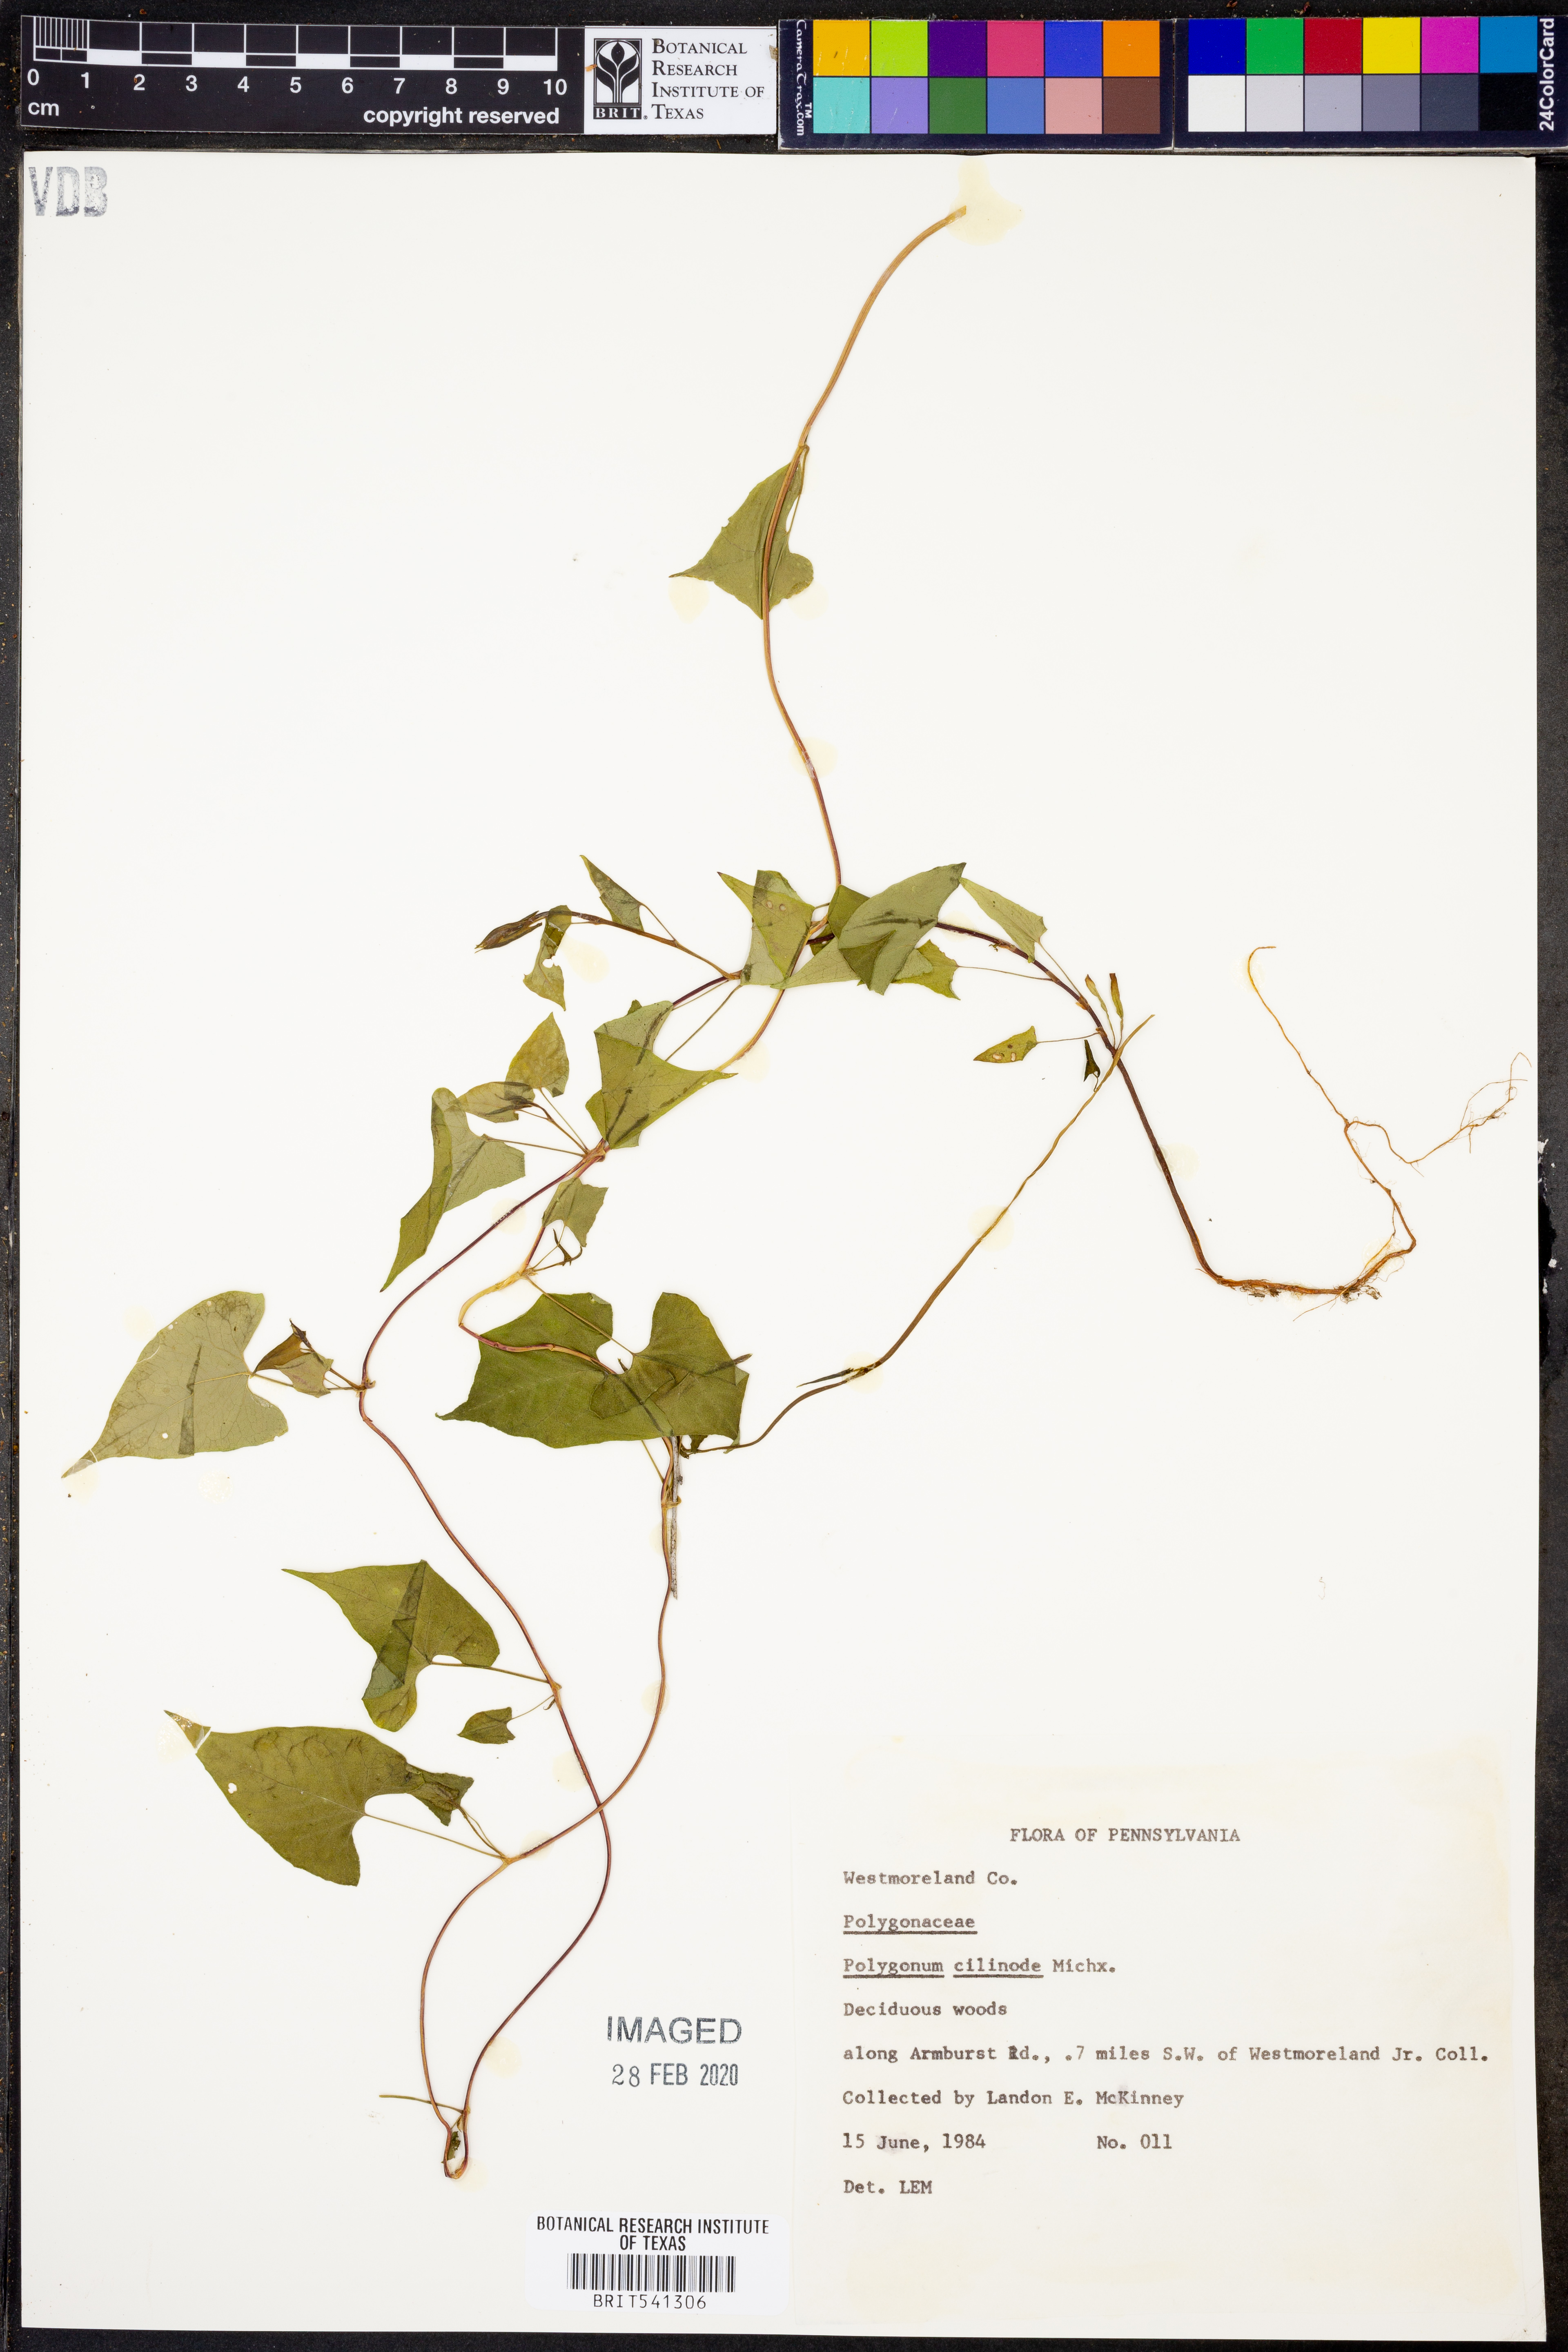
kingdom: Plantae
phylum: Tracheophyta
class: Magnoliopsida
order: Caryophyllales
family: Polygonaceae
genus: Parogonum
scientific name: Parogonum ciliinode
